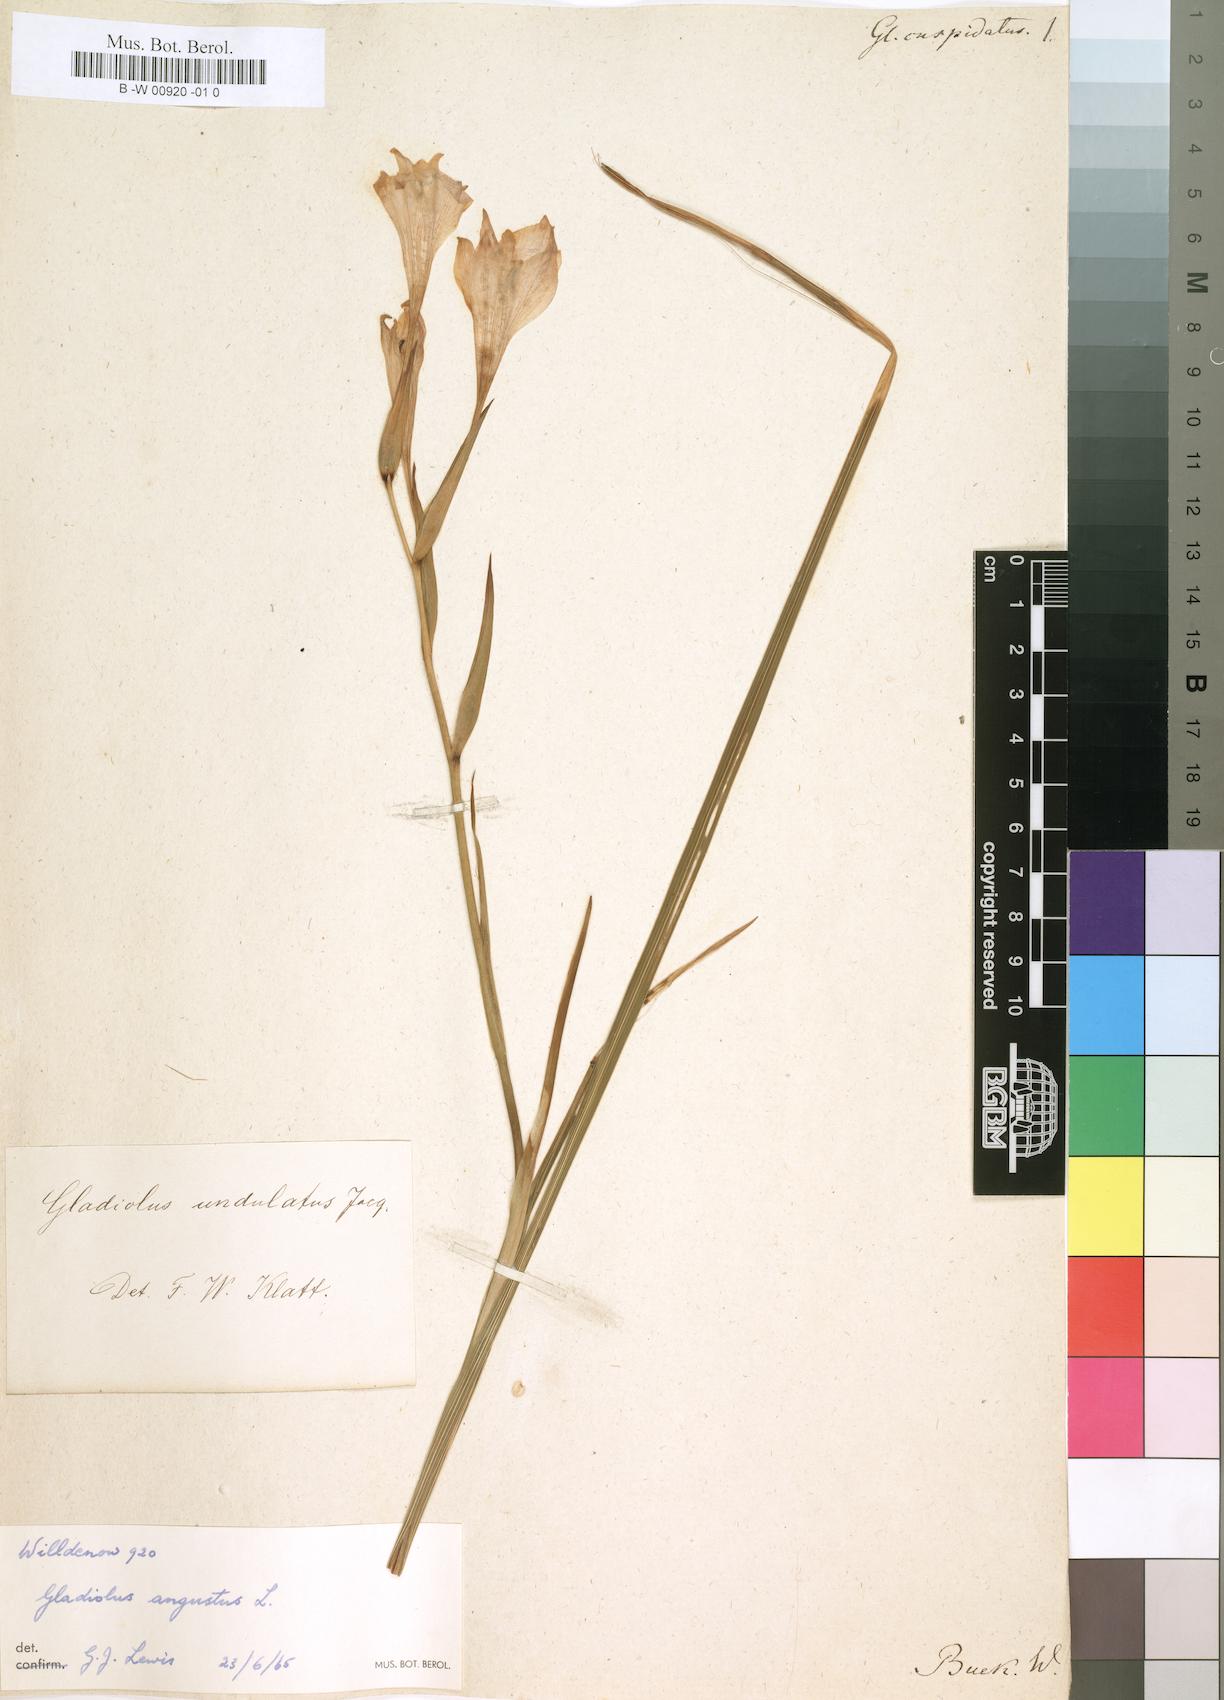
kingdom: Plantae
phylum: Tracheophyta
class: Liliopsida
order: Asparagales
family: Iridaceae
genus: Gladiolus
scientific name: Gladiolus undulatus
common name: Large painted-lady
